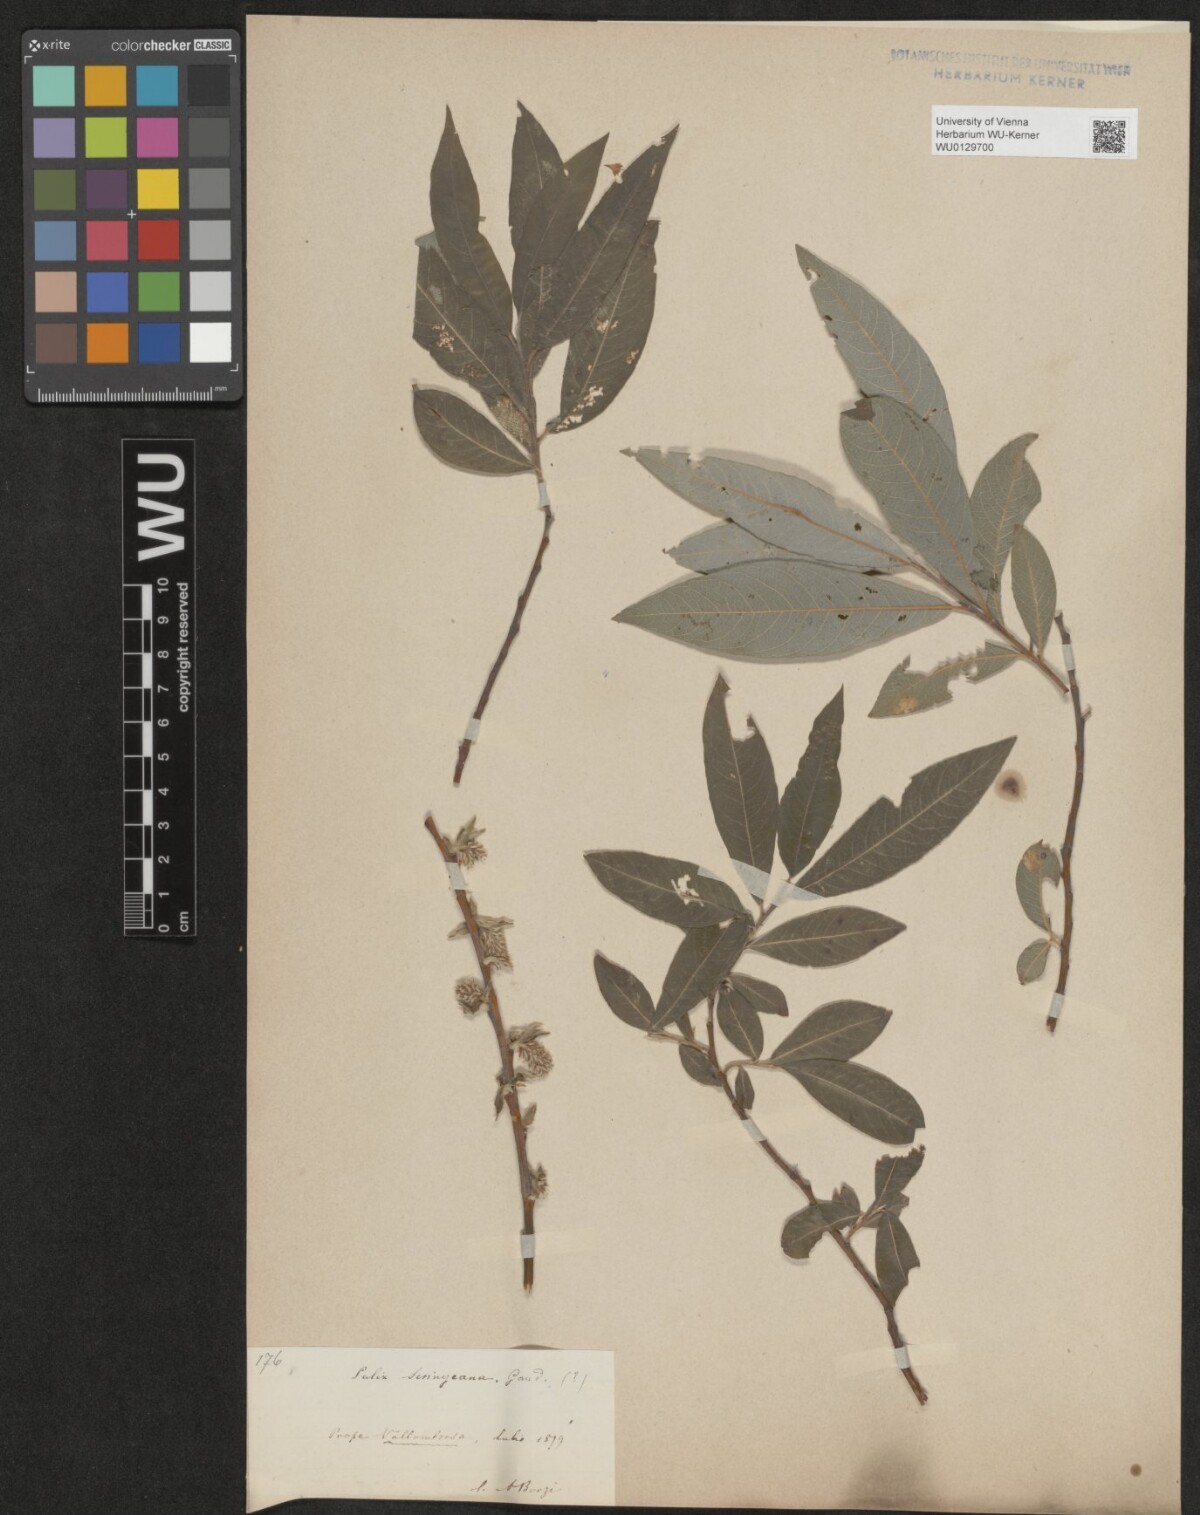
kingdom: Plantae
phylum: Tracheophyta
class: Magnoliopsida
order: Malpighiales
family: Salicaceae
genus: Salix
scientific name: Salix
